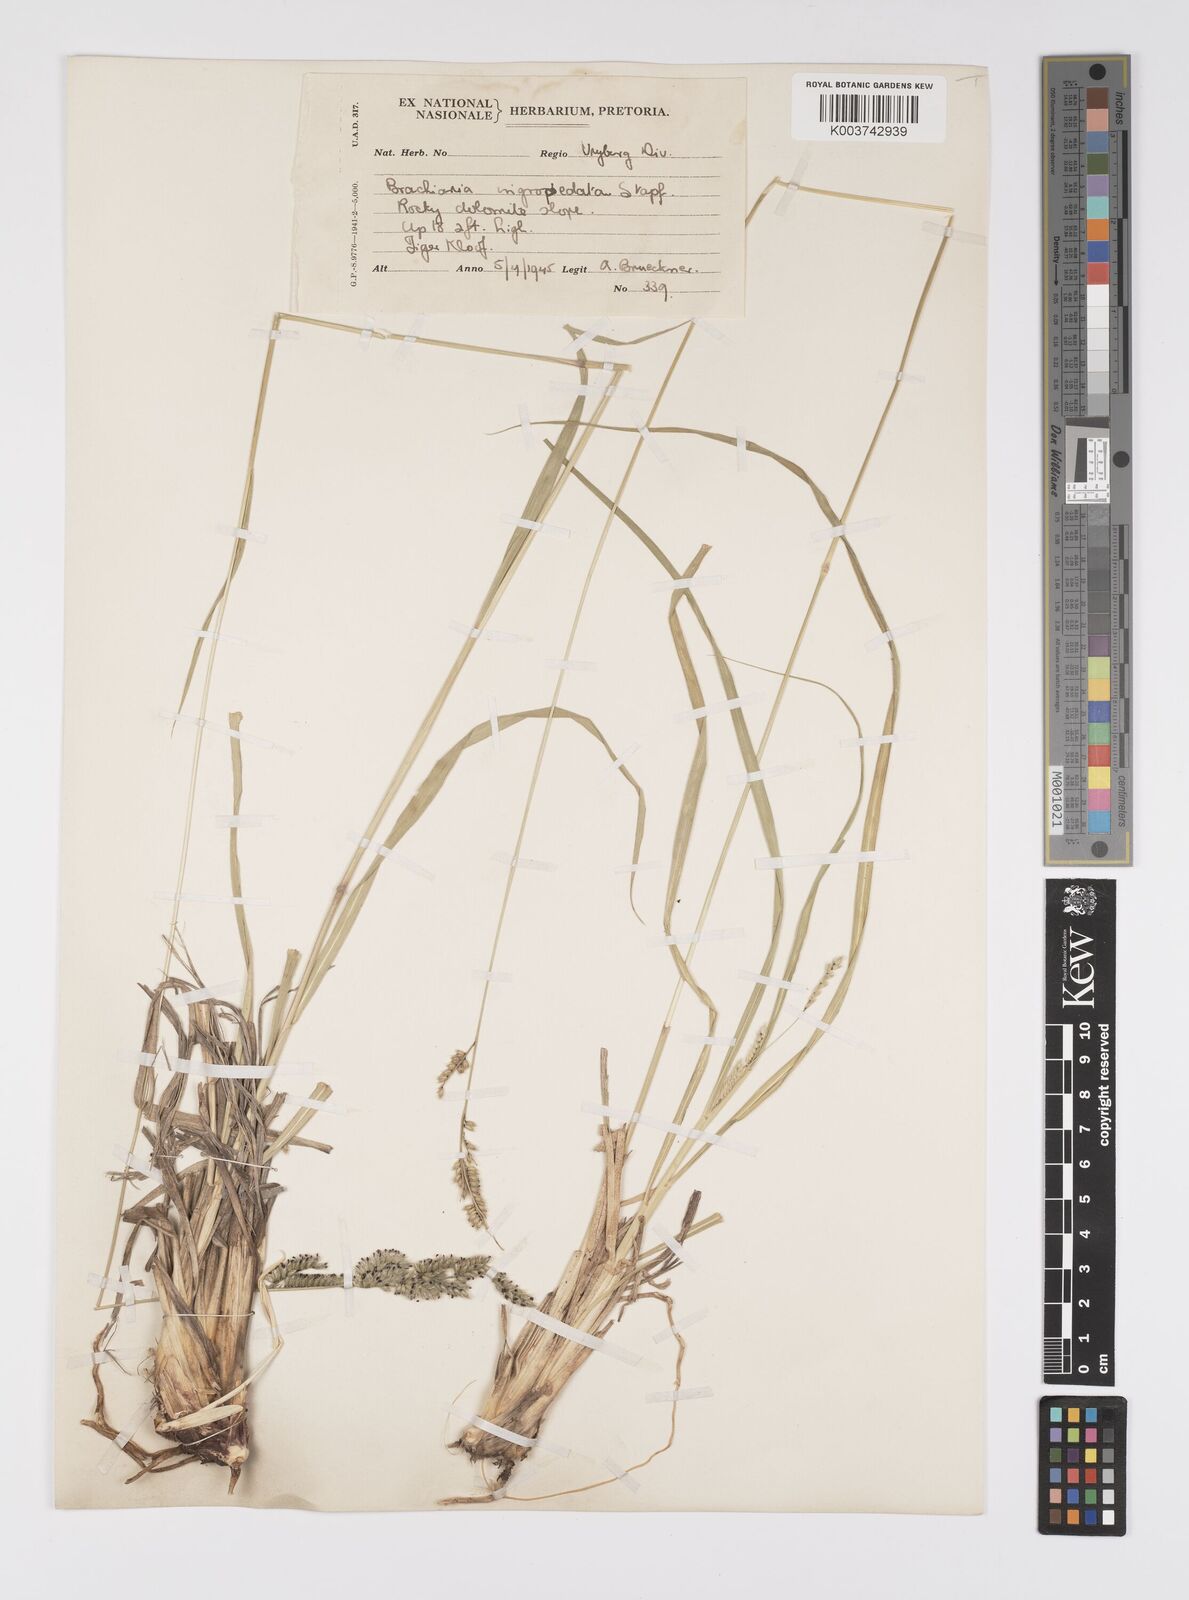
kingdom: Plantae
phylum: Tracheophyta
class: Liliopsida
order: Poales
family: Poaceae
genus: Urochloa
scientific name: Urochloa nigropedata
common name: Spotted signal grass
